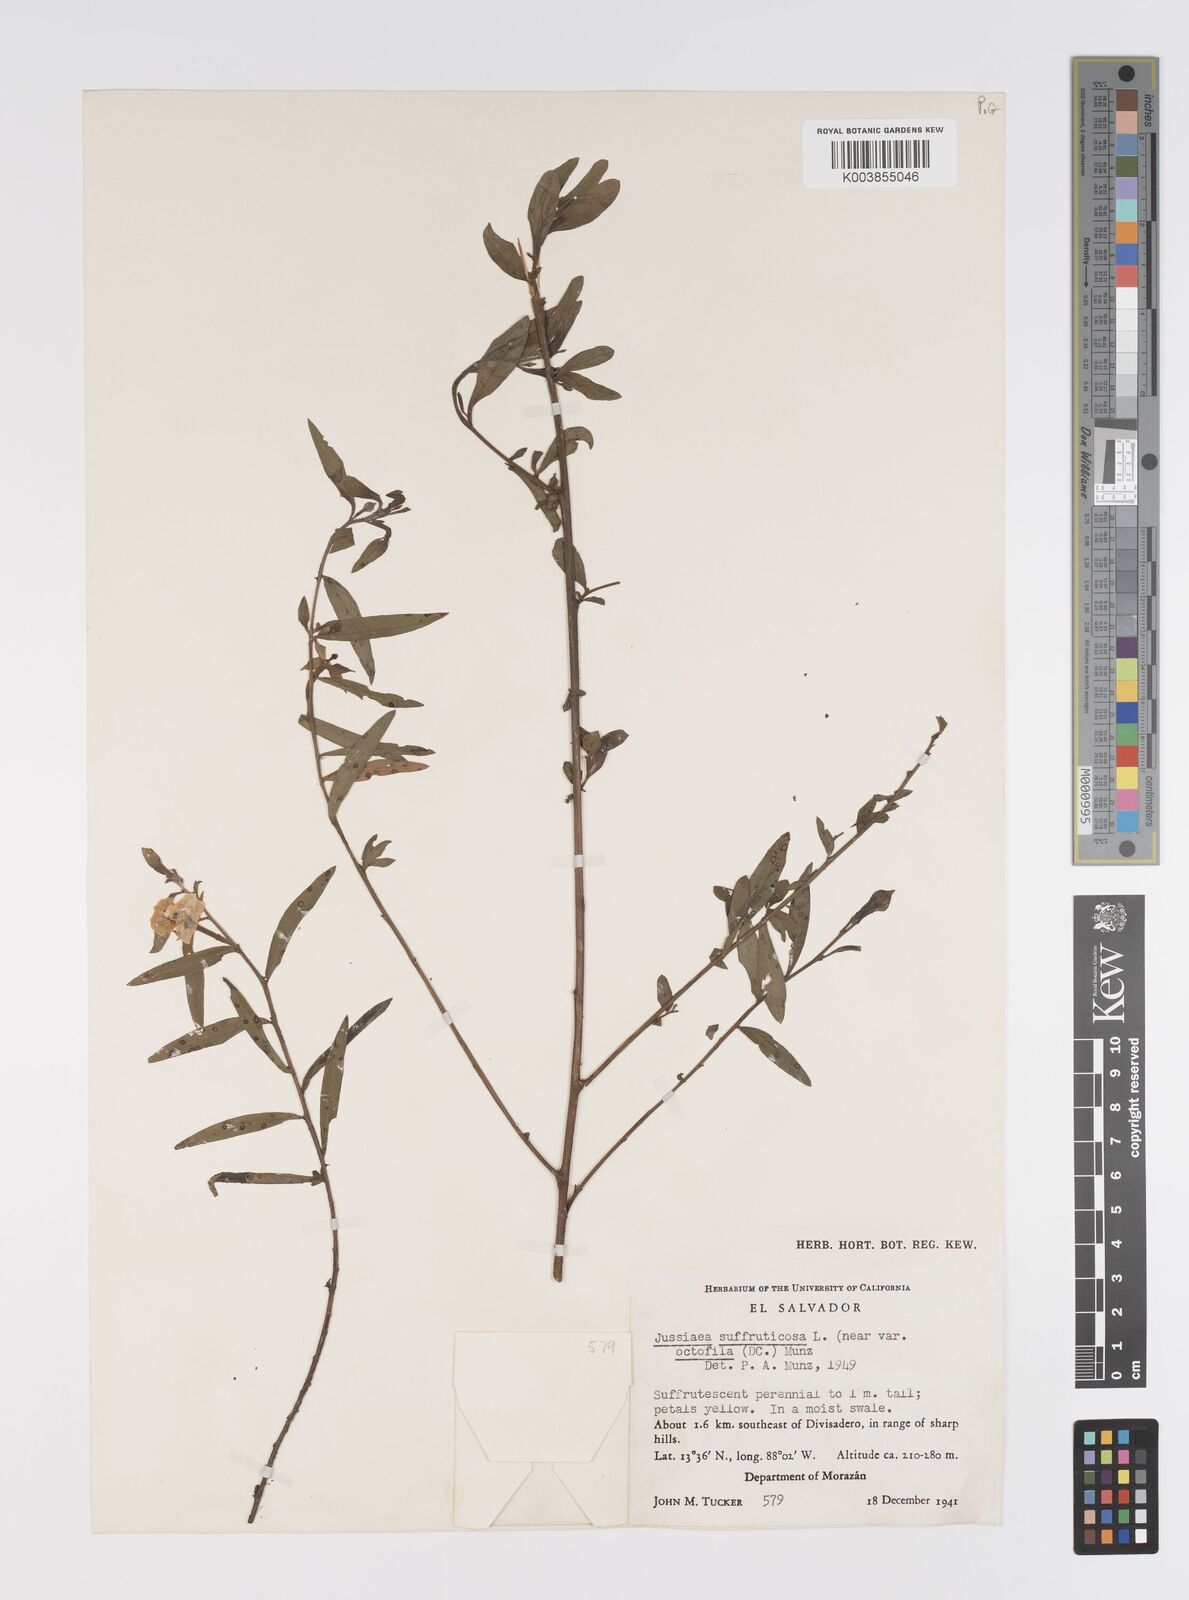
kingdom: Plantae
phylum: Tracheophyta
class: Magnoliopsida
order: Myrtales
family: Onagraceae
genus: Ludwigia
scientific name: Ludwigia octovalvis
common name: Water-primrose
